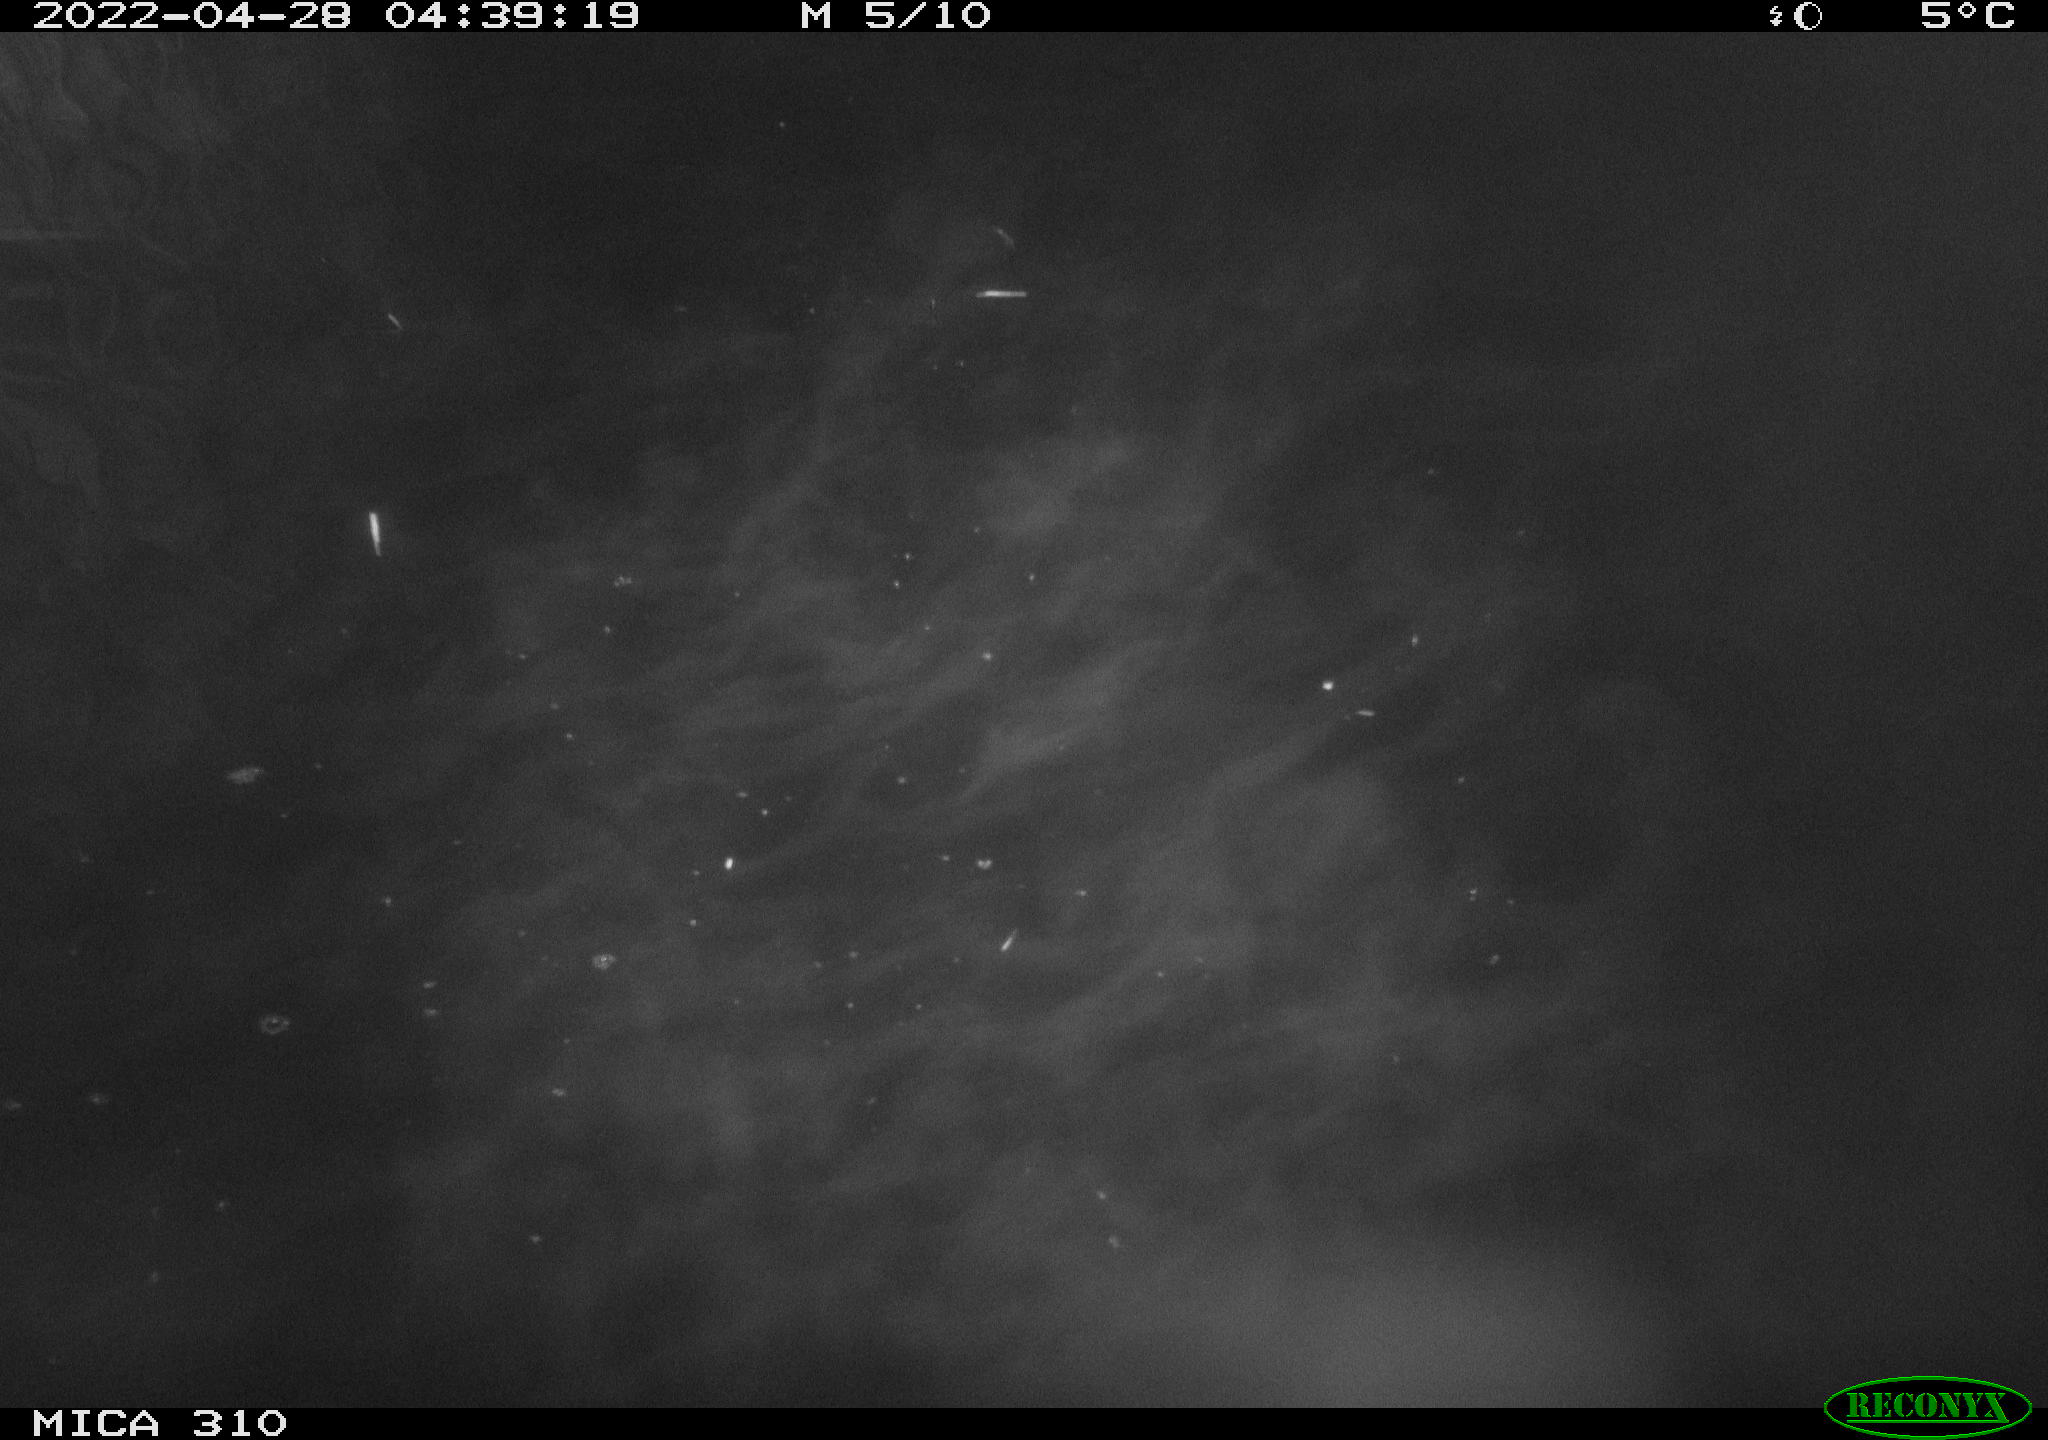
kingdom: Animalia
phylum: Chordata
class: Aves
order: Anseriformes
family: Anatidae
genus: Anas
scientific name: Anas platyrhynchos
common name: Mallard
